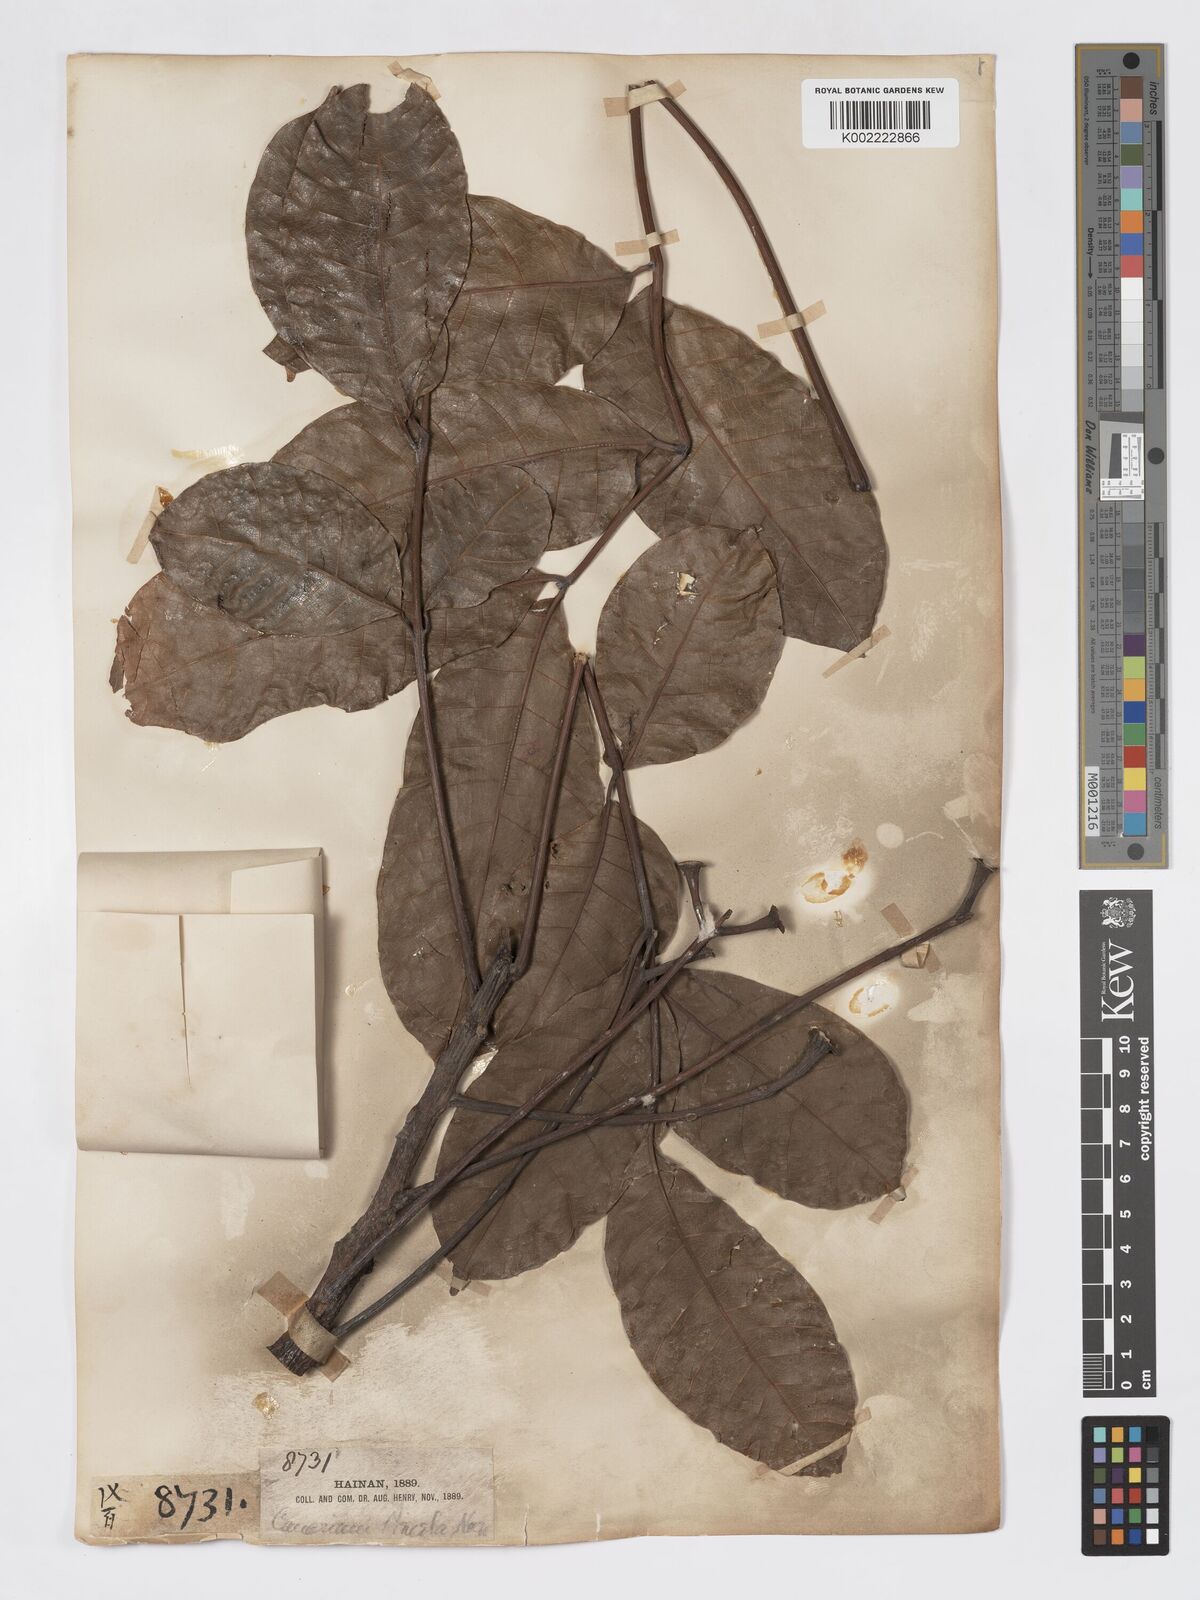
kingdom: Plantae
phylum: Tracheophyta
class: Magnoliopsida
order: Sapindales
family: Burseraceae
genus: Canarium
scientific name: Canarium
